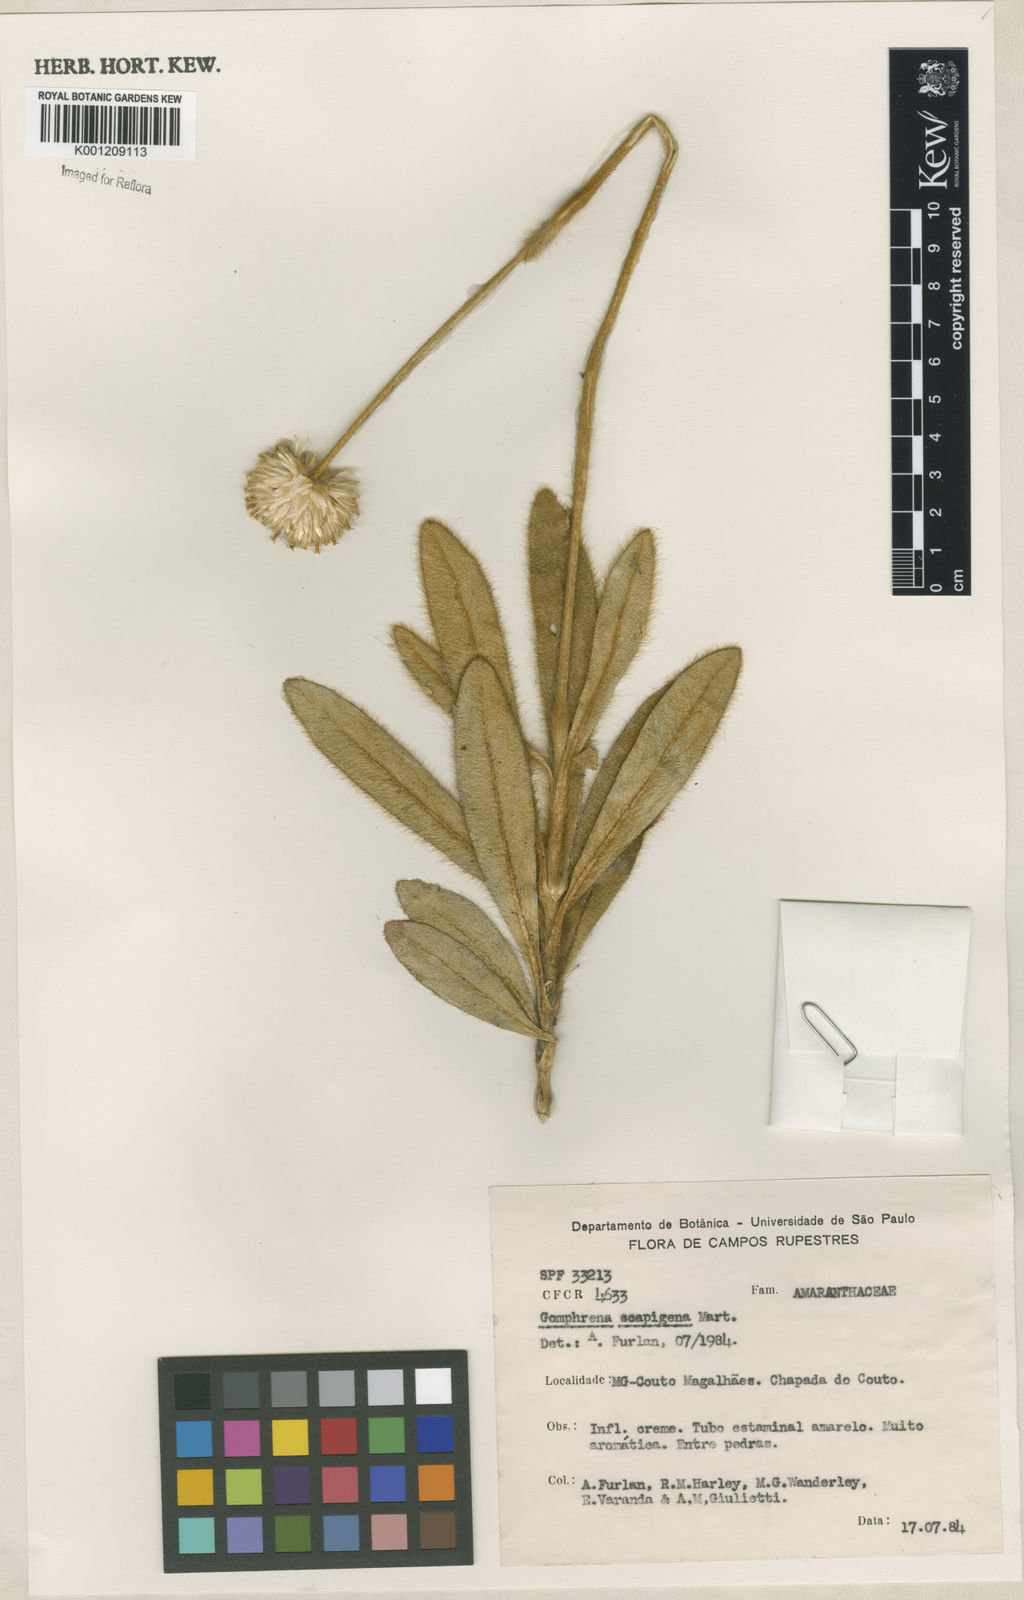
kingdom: Plantae
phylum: Tracheophyta
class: Magnoliopsida
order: Caryophyllales
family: Amaranthaceae
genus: Gomphrena
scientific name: Gomphrena scapigera
